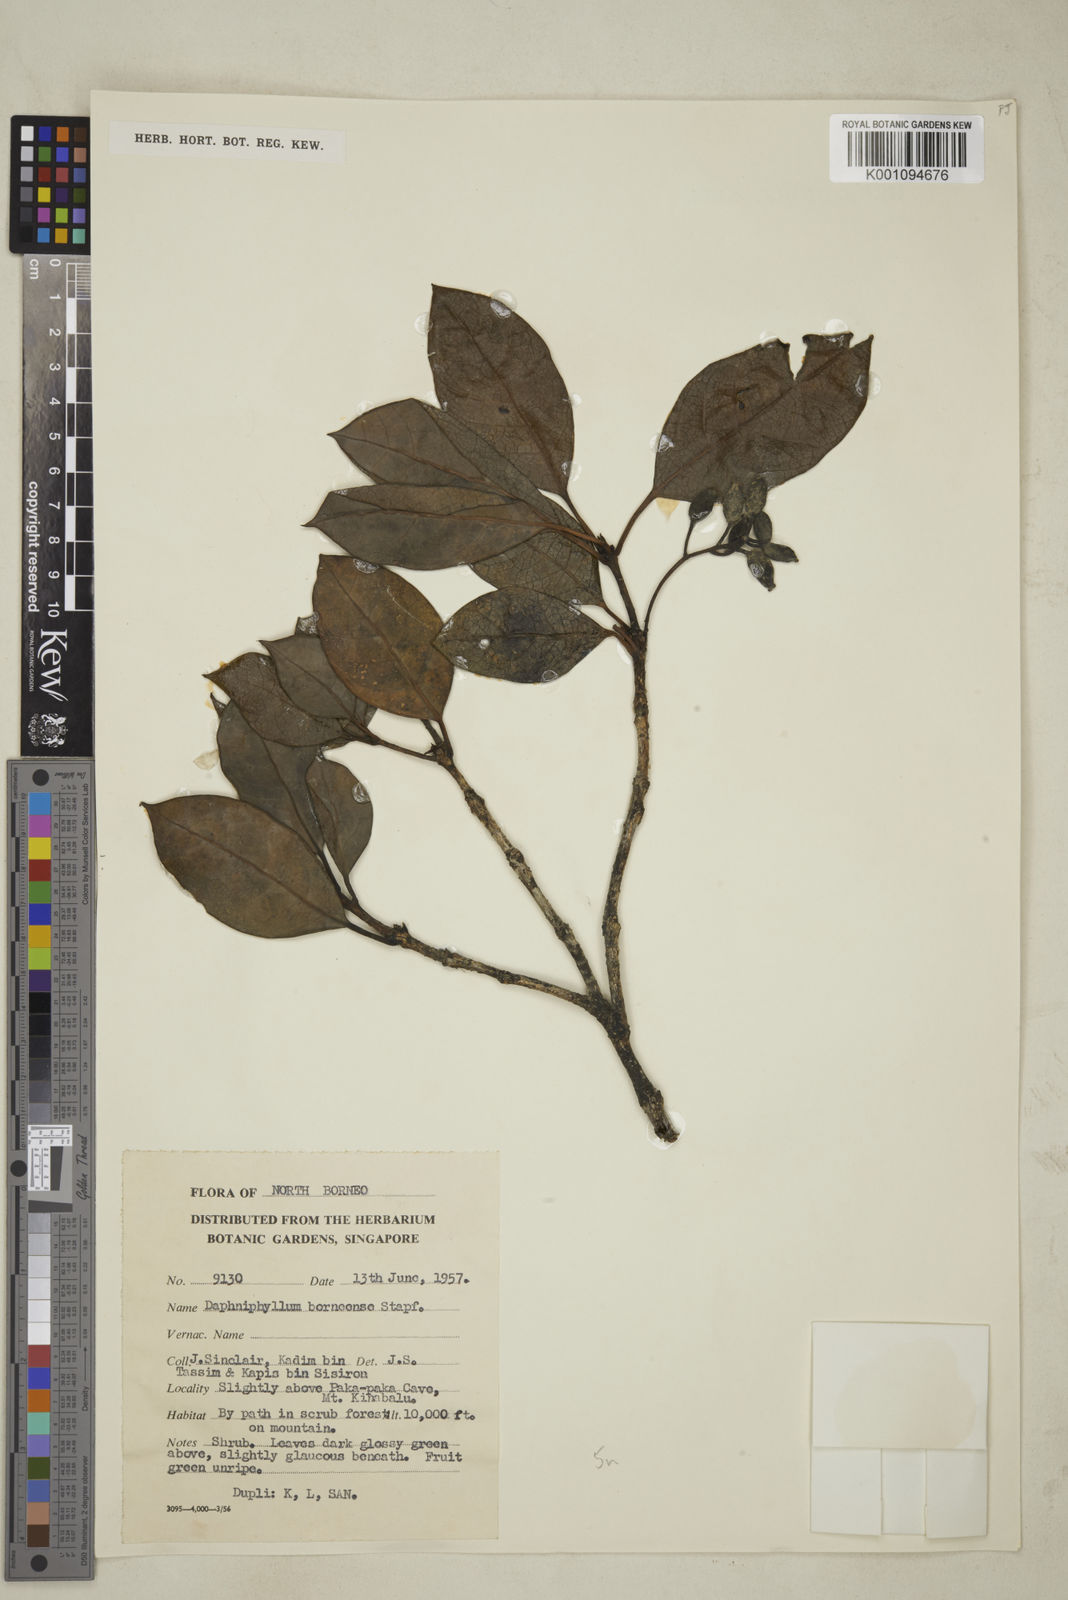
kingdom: Plantae
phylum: Tracheophyta
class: Magnoliopsida
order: Saxifragales
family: Daphniphyllaceae
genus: Daphniphyllum
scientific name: Daphniphyllum borneense
